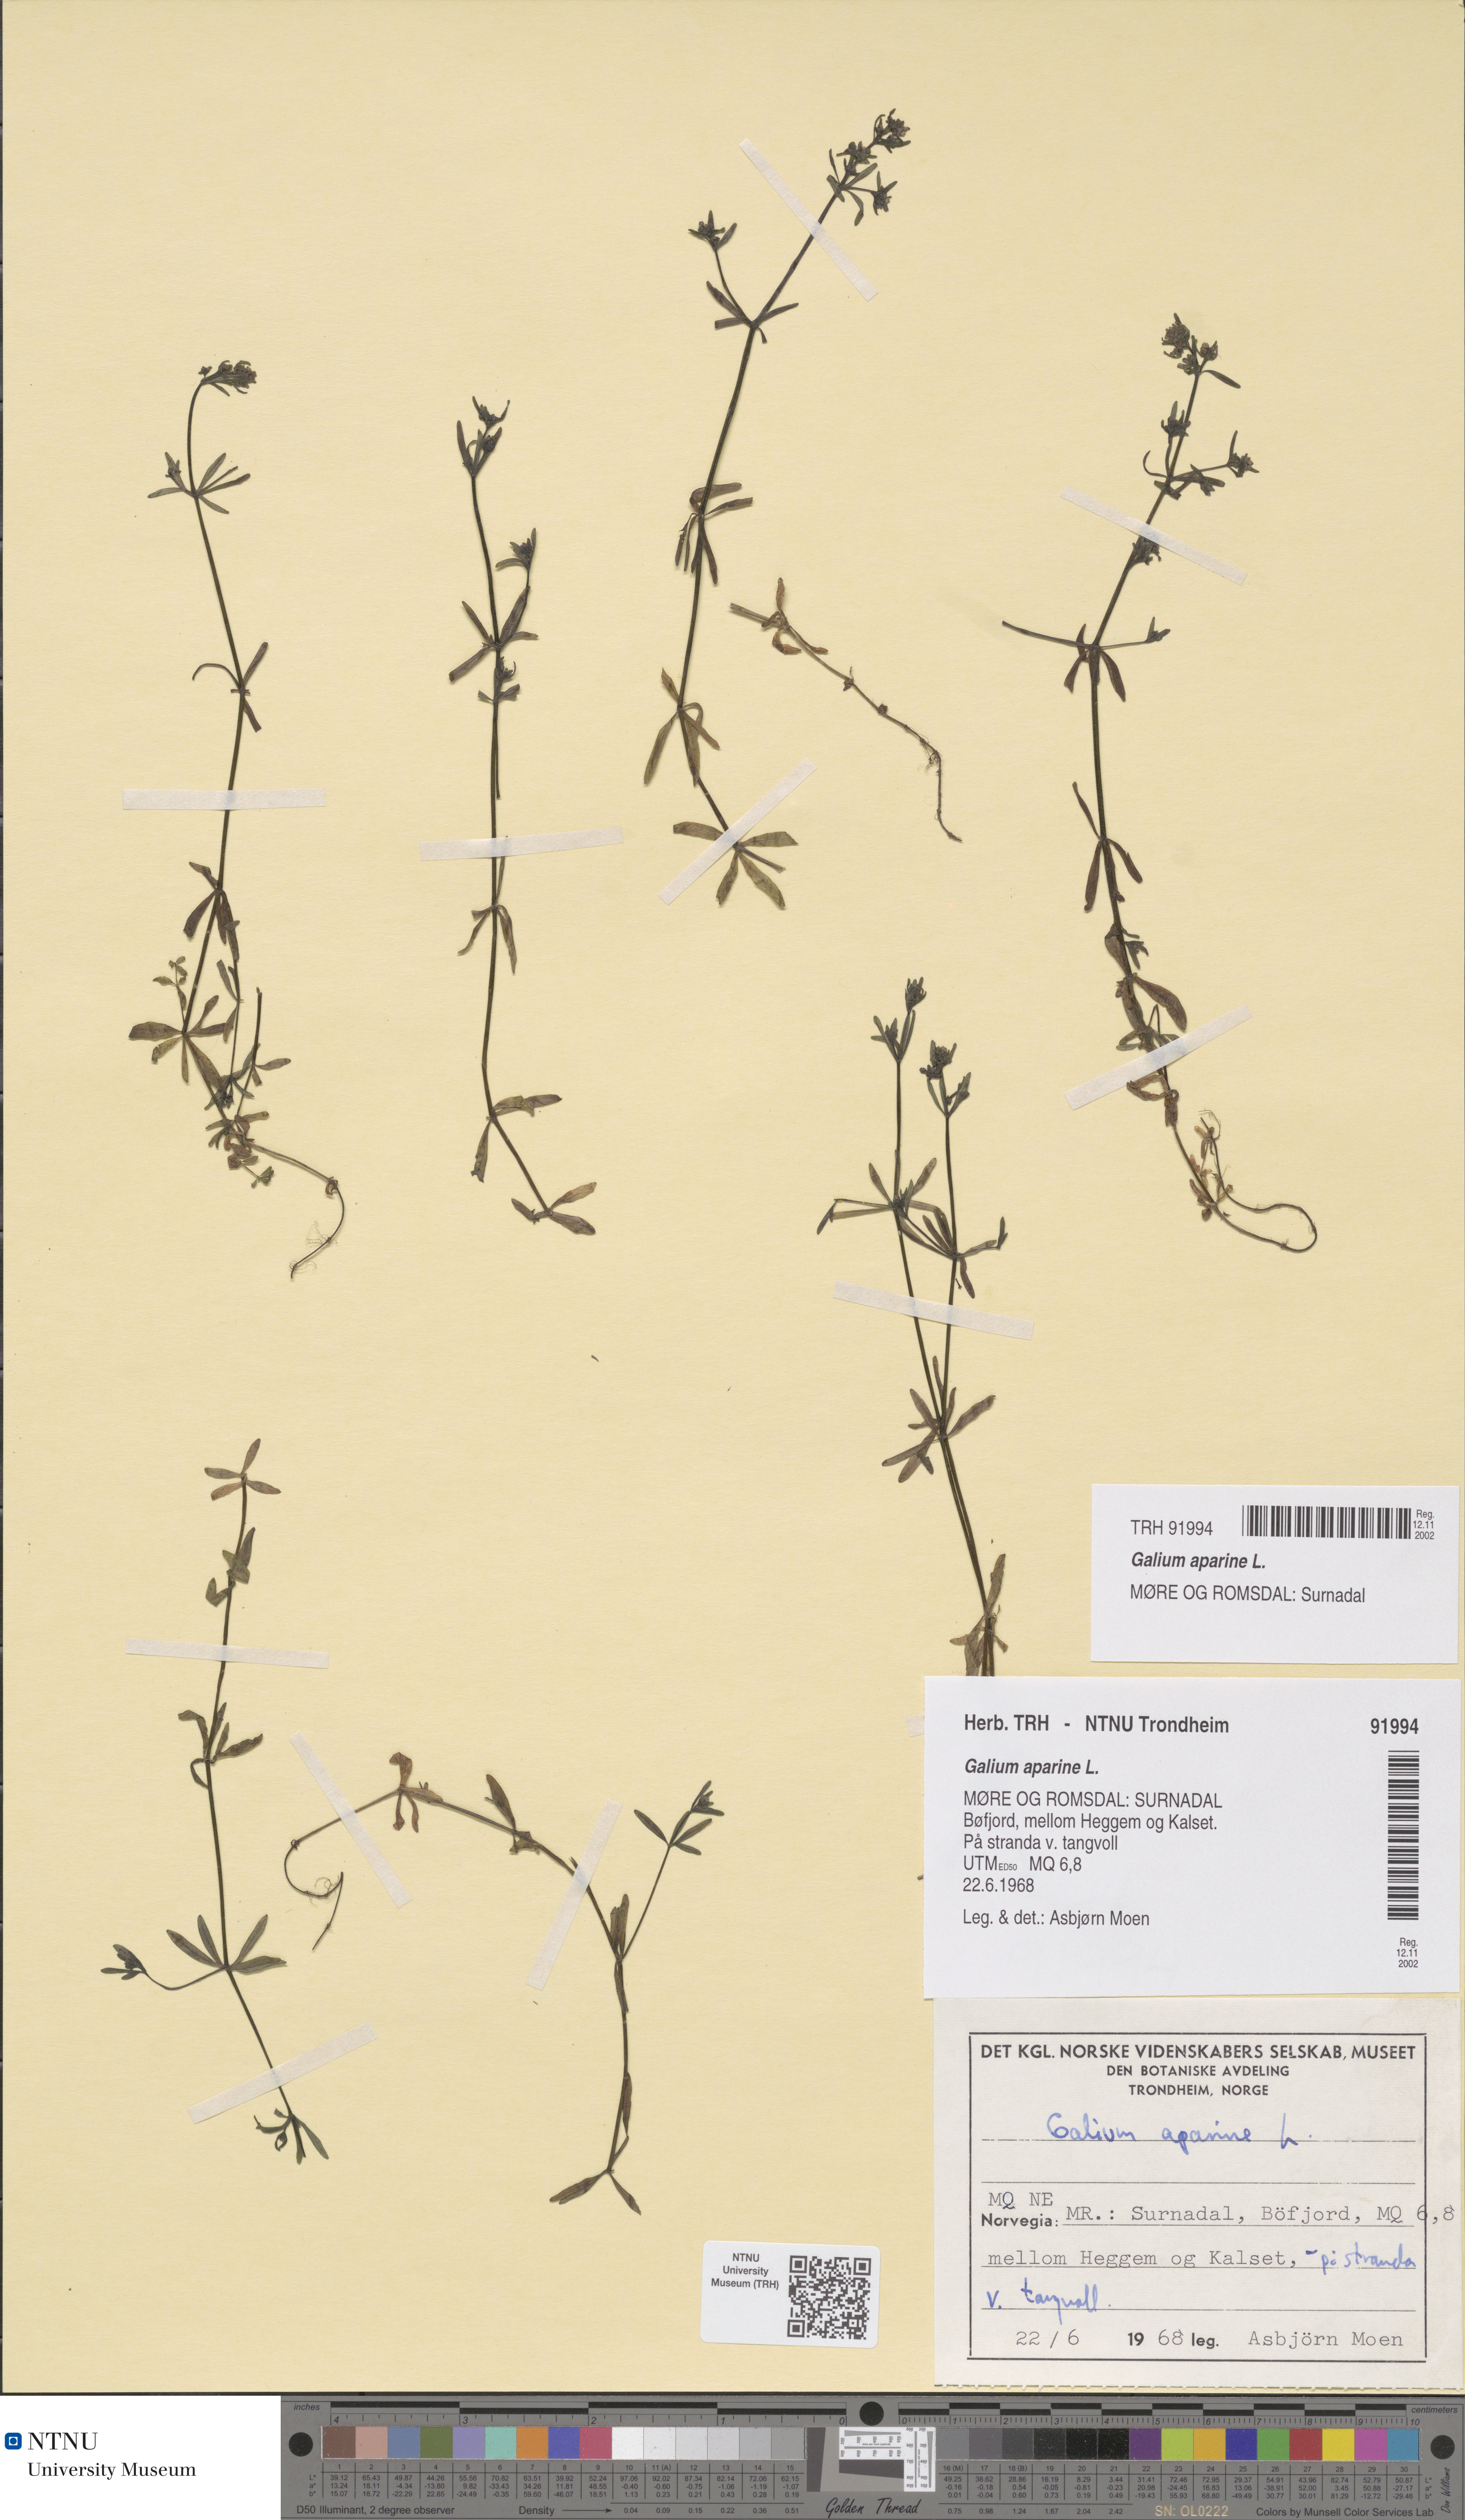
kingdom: Plantae
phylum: Tracheophyta
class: Magnoliopsida
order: Gentianales
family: Rubiaceae
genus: Galium
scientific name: Galium aparine
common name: Cleavers
